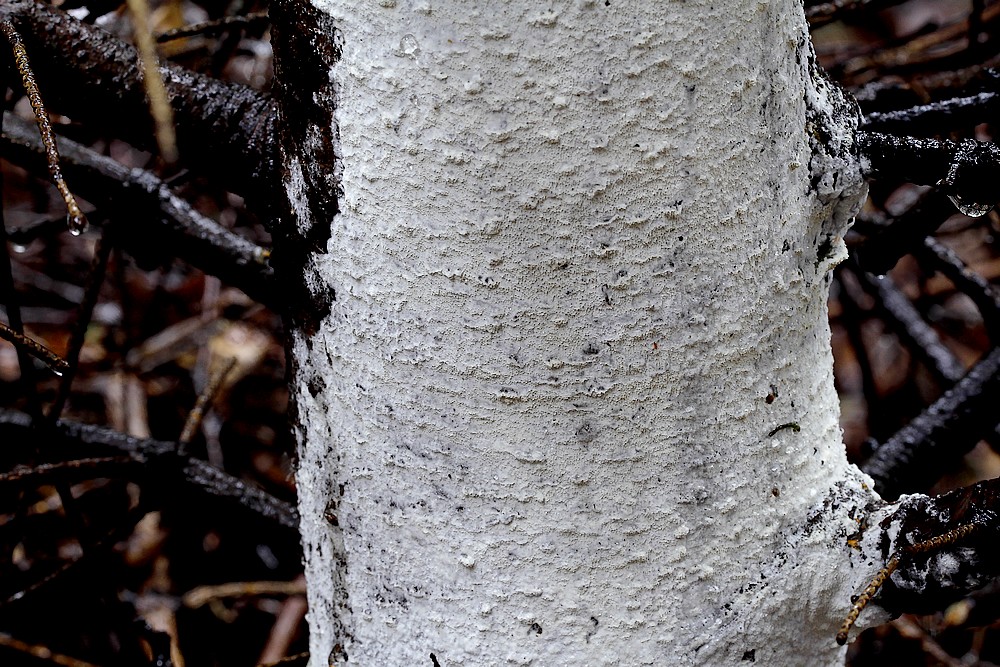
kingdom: Fungi
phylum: Basidiomycota
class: Agaricomycetes
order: Polyporales
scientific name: Polyporales
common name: poresvampordenen
